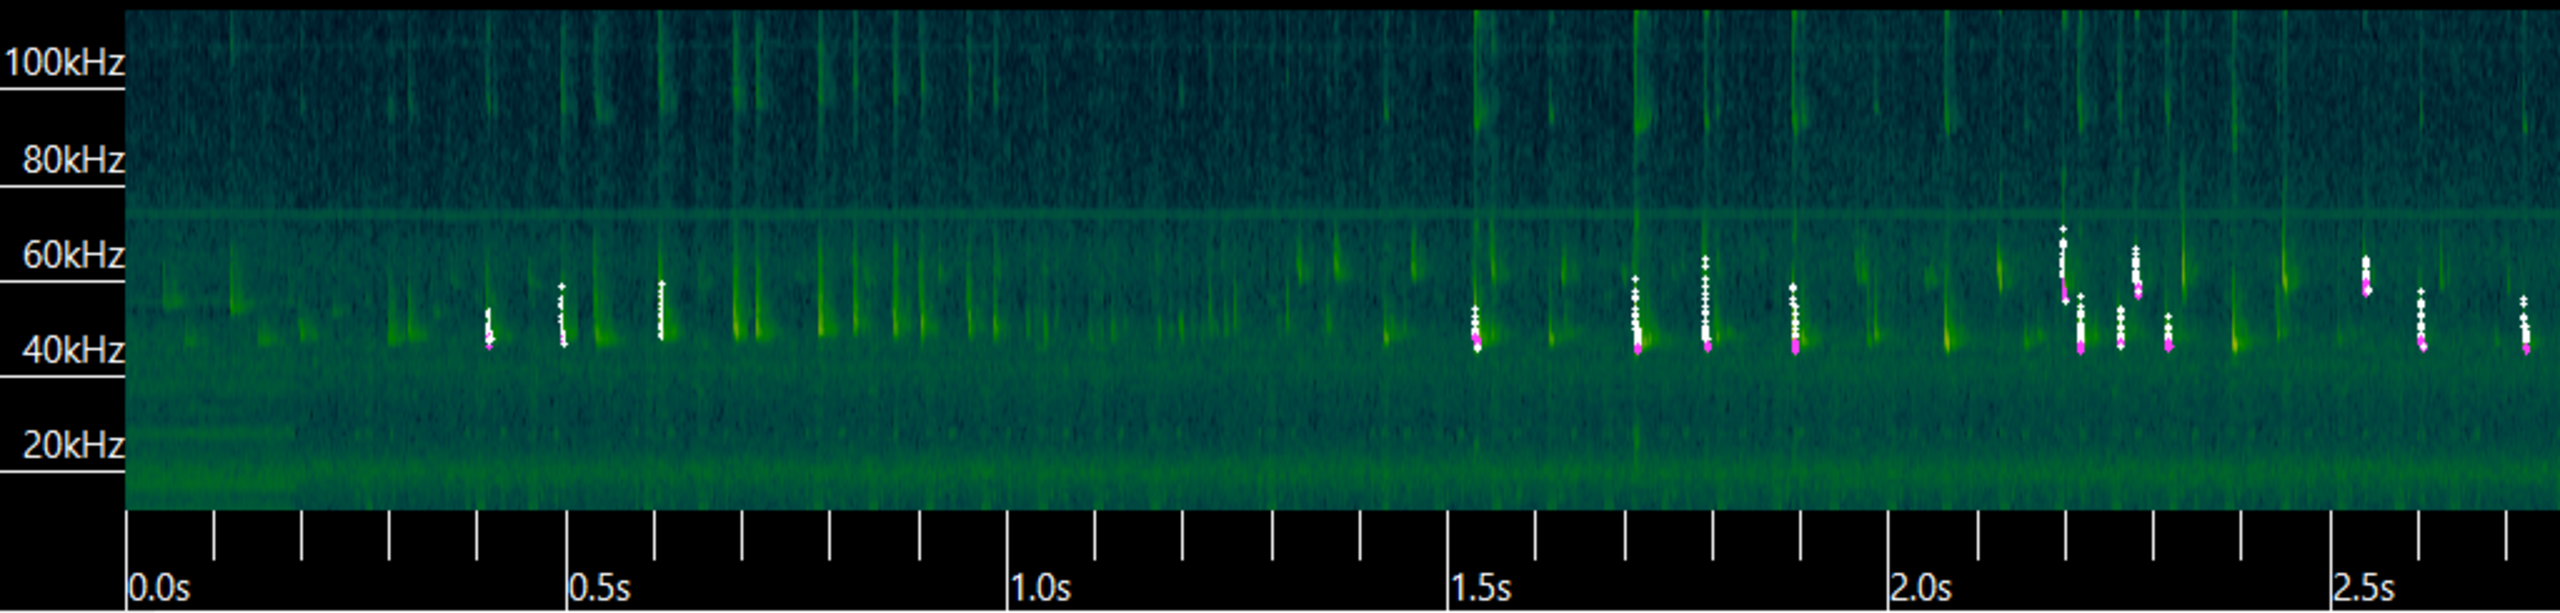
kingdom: Animalia
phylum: Chordata
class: Mammalia
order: Chiroptera
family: Vespertilionidae
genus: Pipistrellus
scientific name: Pipistrellus pipistrellus
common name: Pipistrelflagermus
